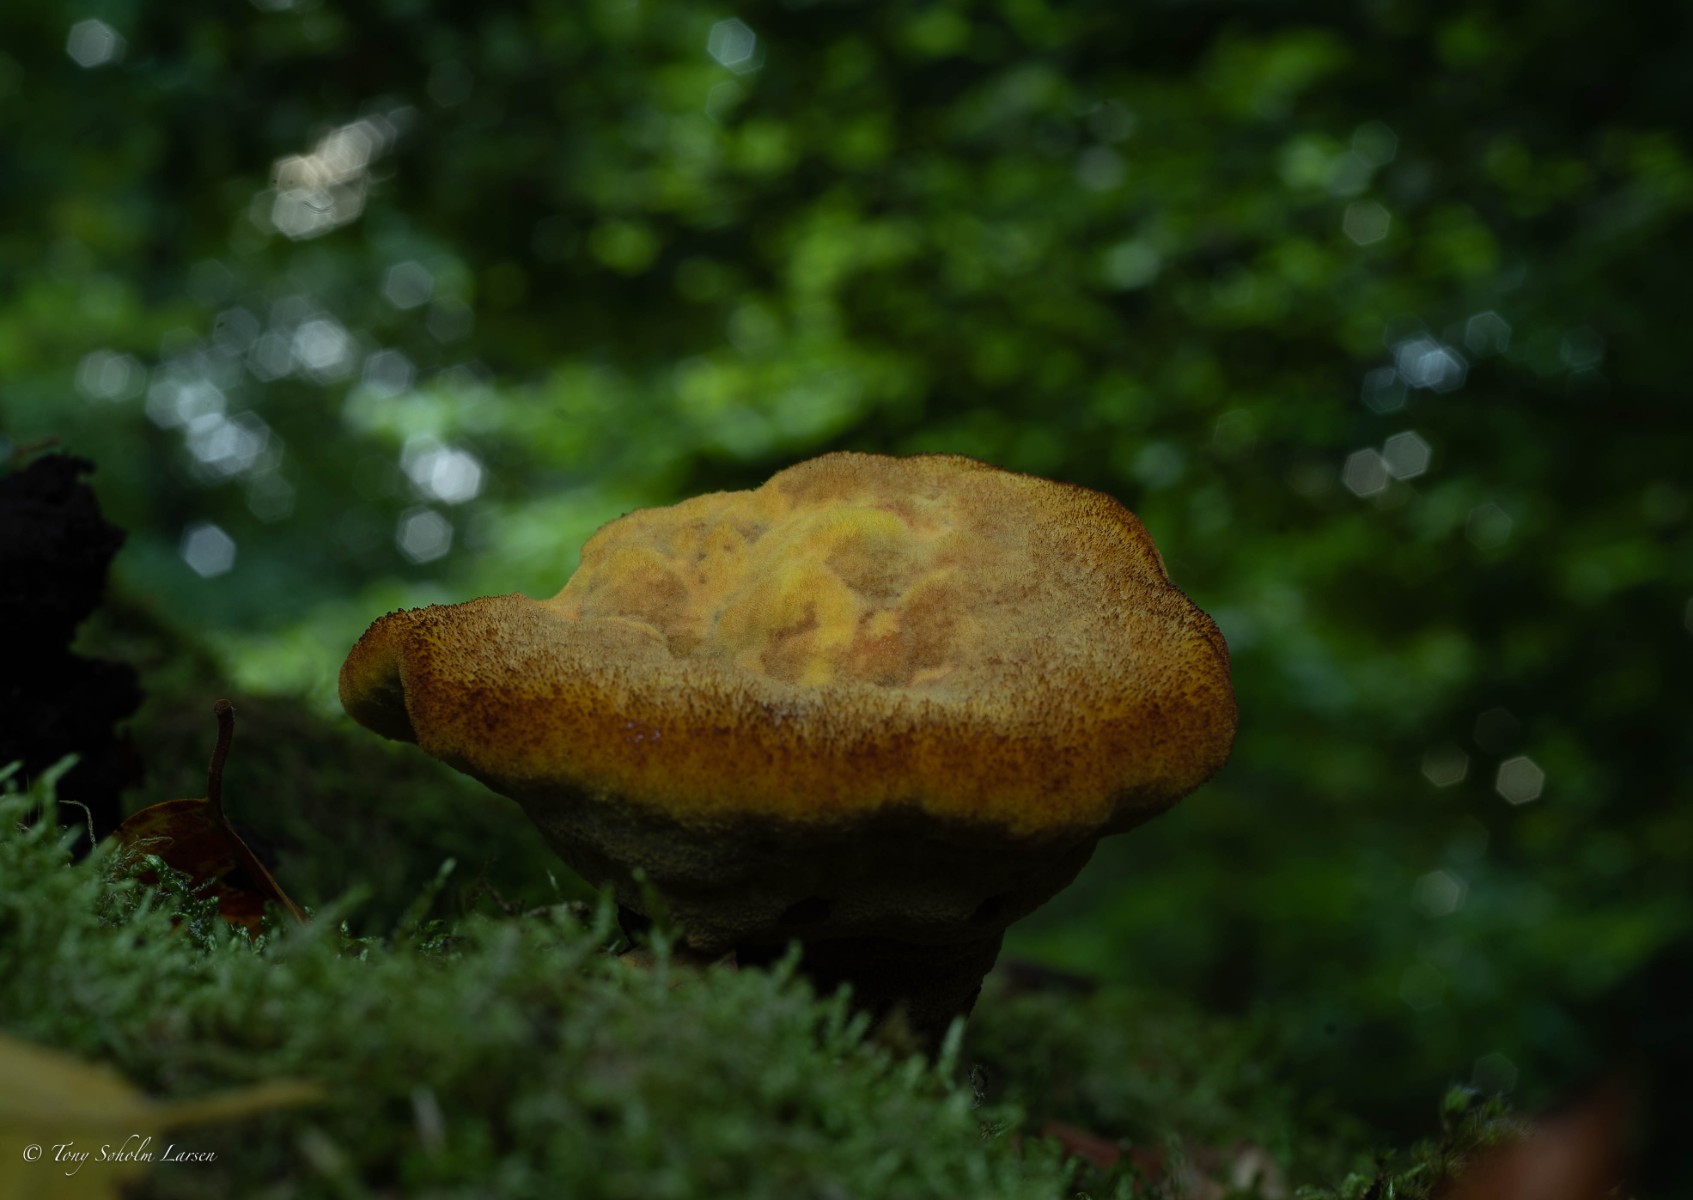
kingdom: Fungi
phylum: Basidiomycota
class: Agaricomycetes
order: Polyporales
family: Laetiporaceae
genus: Phaeolus
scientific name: Phaeolus schweinitzii
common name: brunporesvamp
